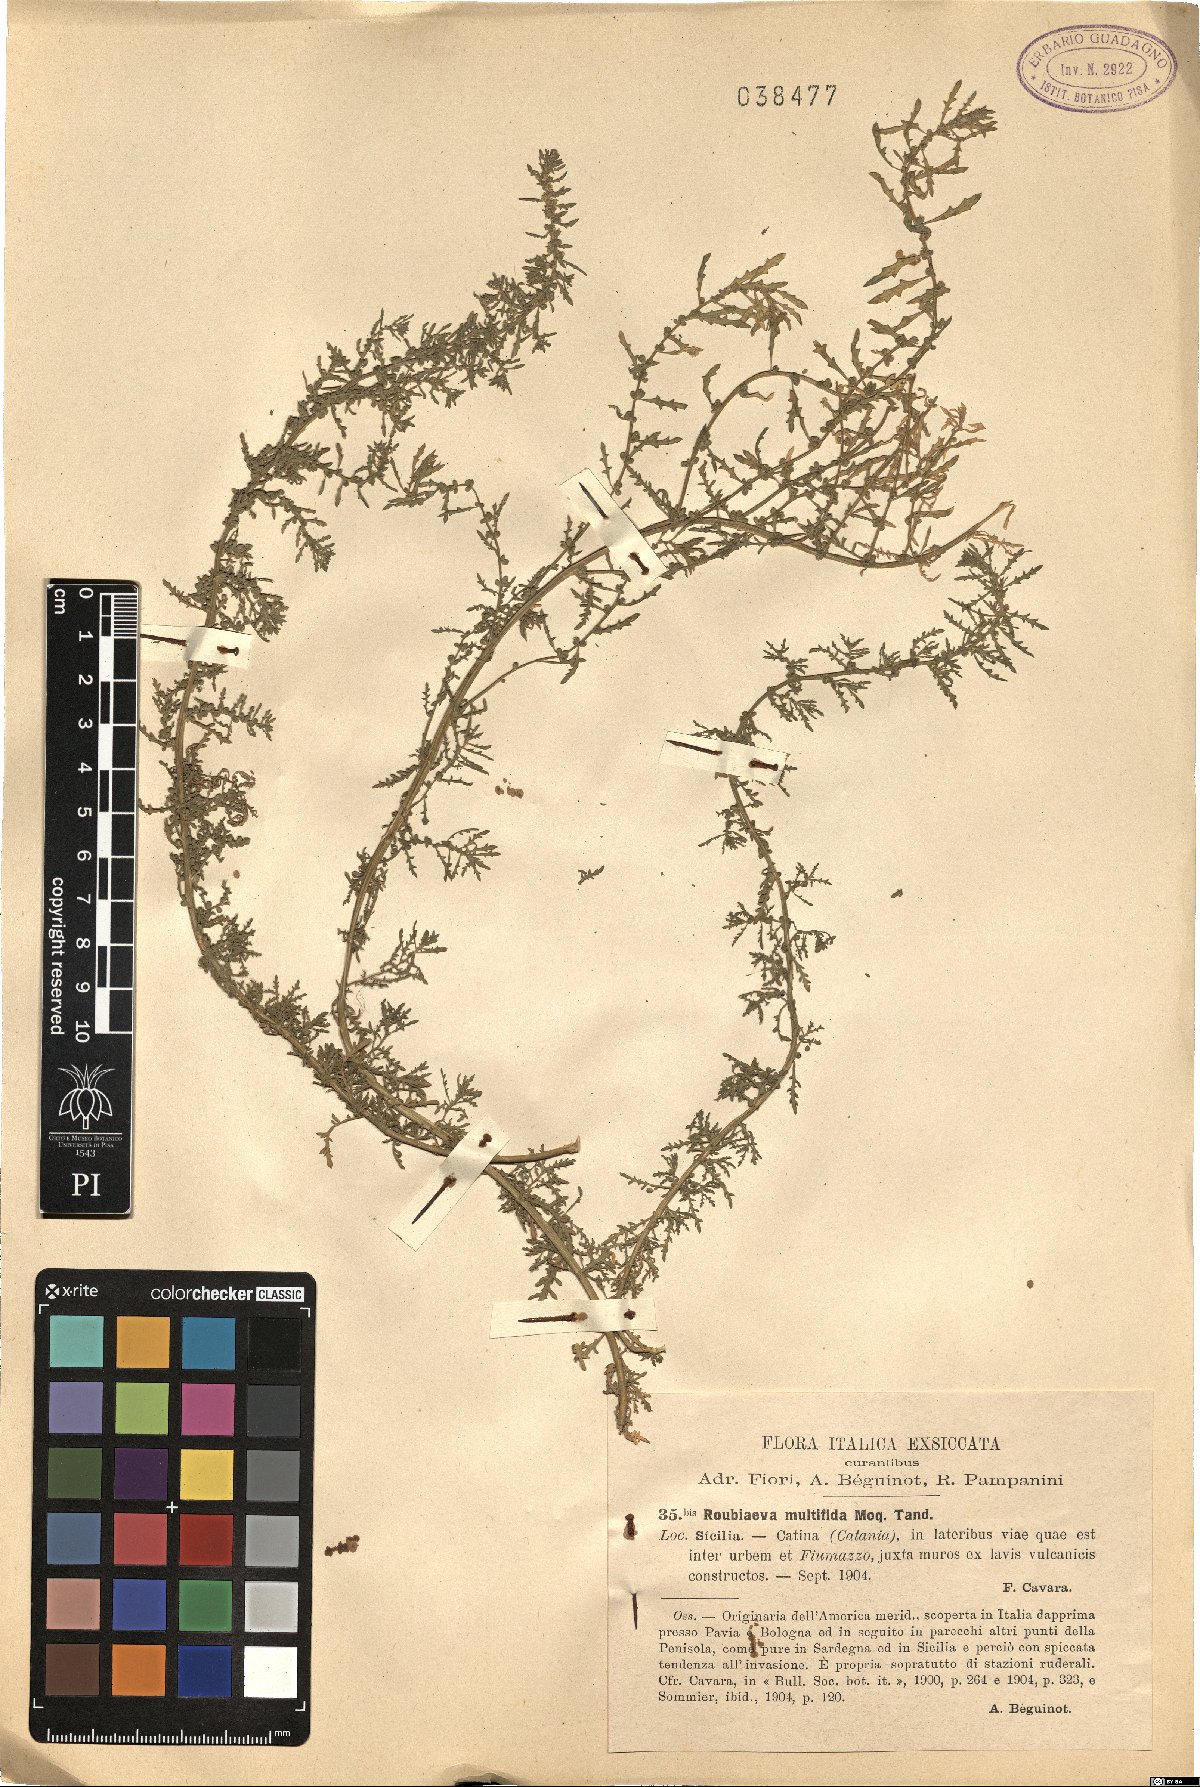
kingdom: Plantae
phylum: Tracheophyta
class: Magnoliopsida
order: Caryophyllales
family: Amaranthaceae
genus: Dysphania
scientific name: Dysphania multifida
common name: Cutleaf goosefoot
